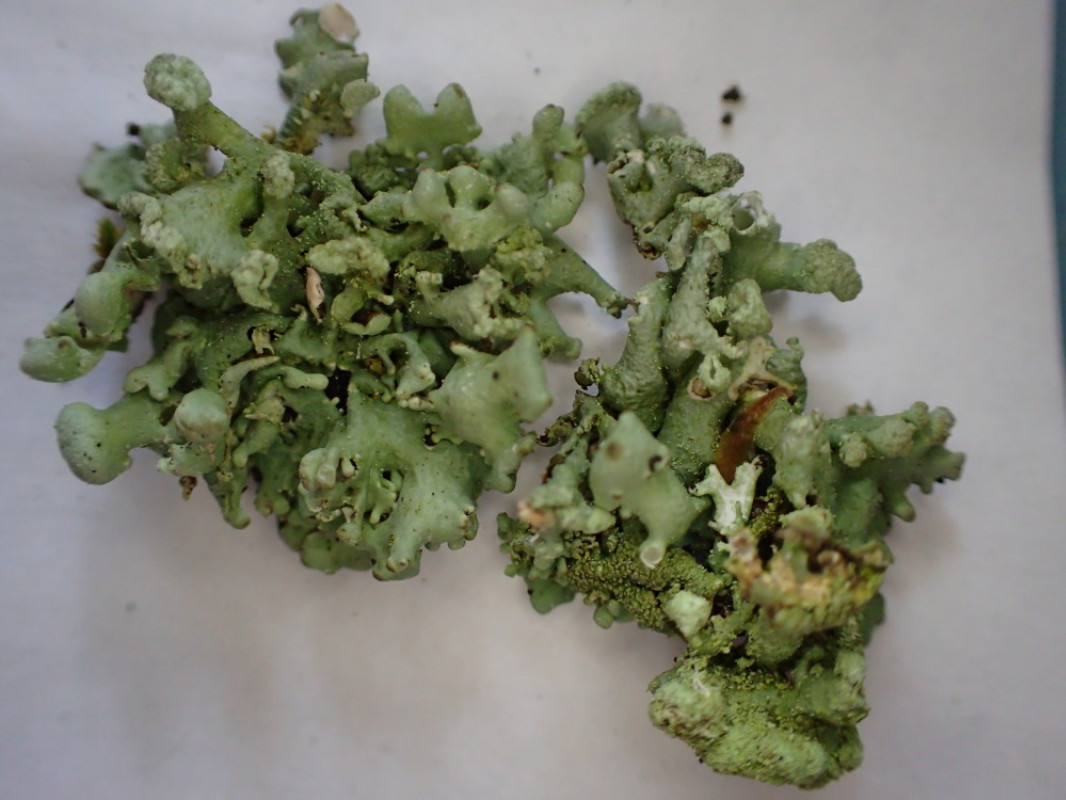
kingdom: Fungi
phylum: Ascomycota
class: Lecanoromycetes
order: Lecanorales
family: Parmeliaceae
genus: Hypogymnia
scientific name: Hypogymnia tubulosa
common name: finger-kvistlav
